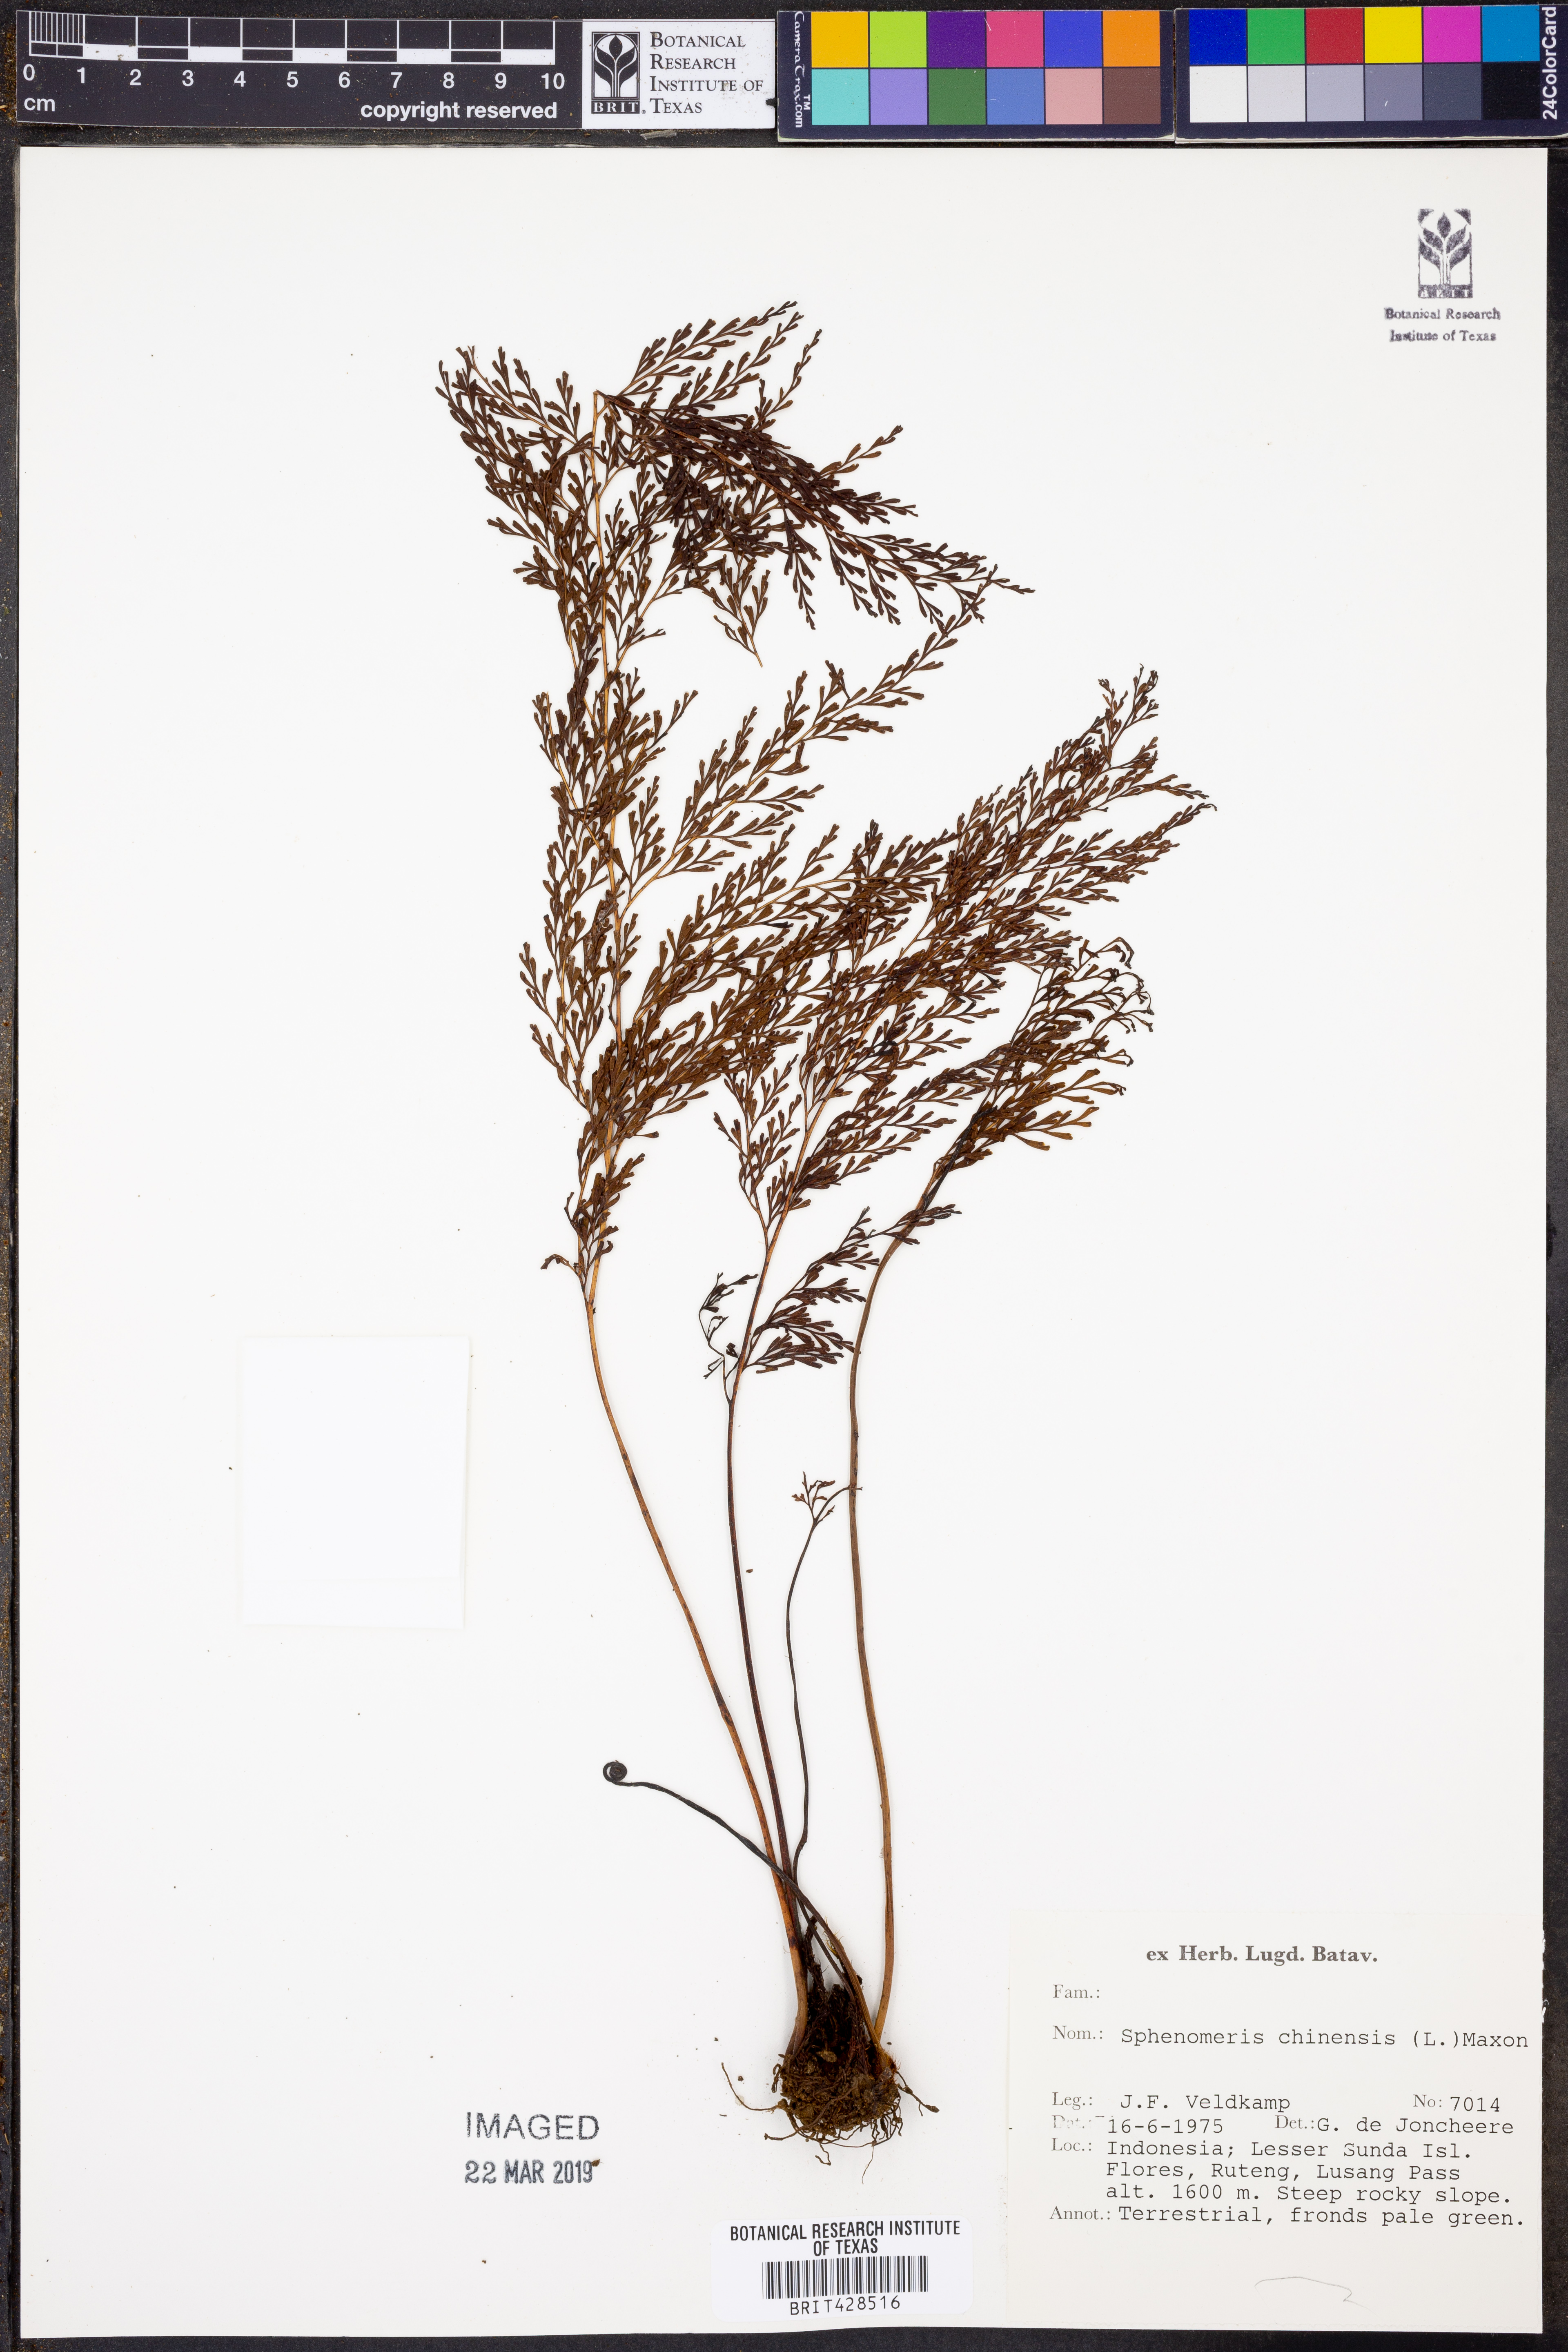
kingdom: Plantae
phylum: Tracheophyta
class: Polypodiopsida
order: Polypodiales
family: Lindsaeaceae
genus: Odontosoria
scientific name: Odontosoria chinensis
